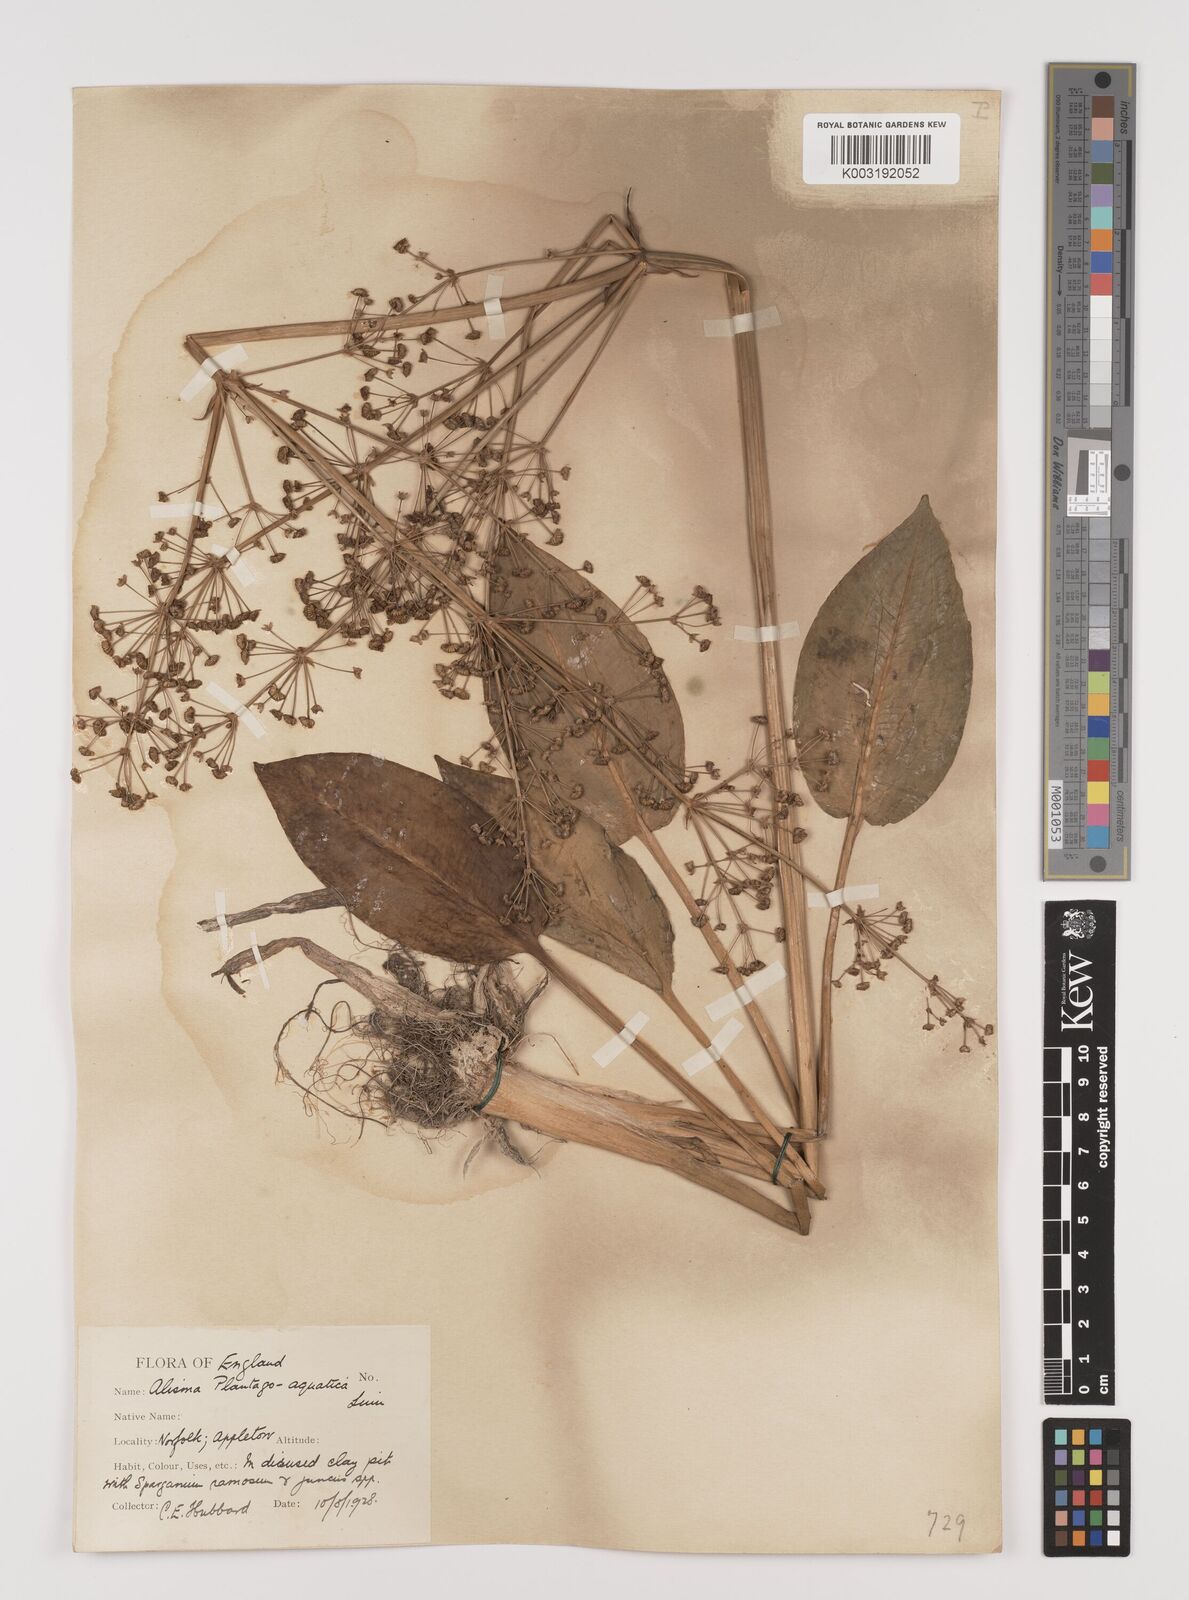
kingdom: Plantae
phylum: Tracheophyta
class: Liliopsida
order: Alismatales
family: Alismataceae
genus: Alisma
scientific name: Alisma plantago-aquatica
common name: Water-plantain
